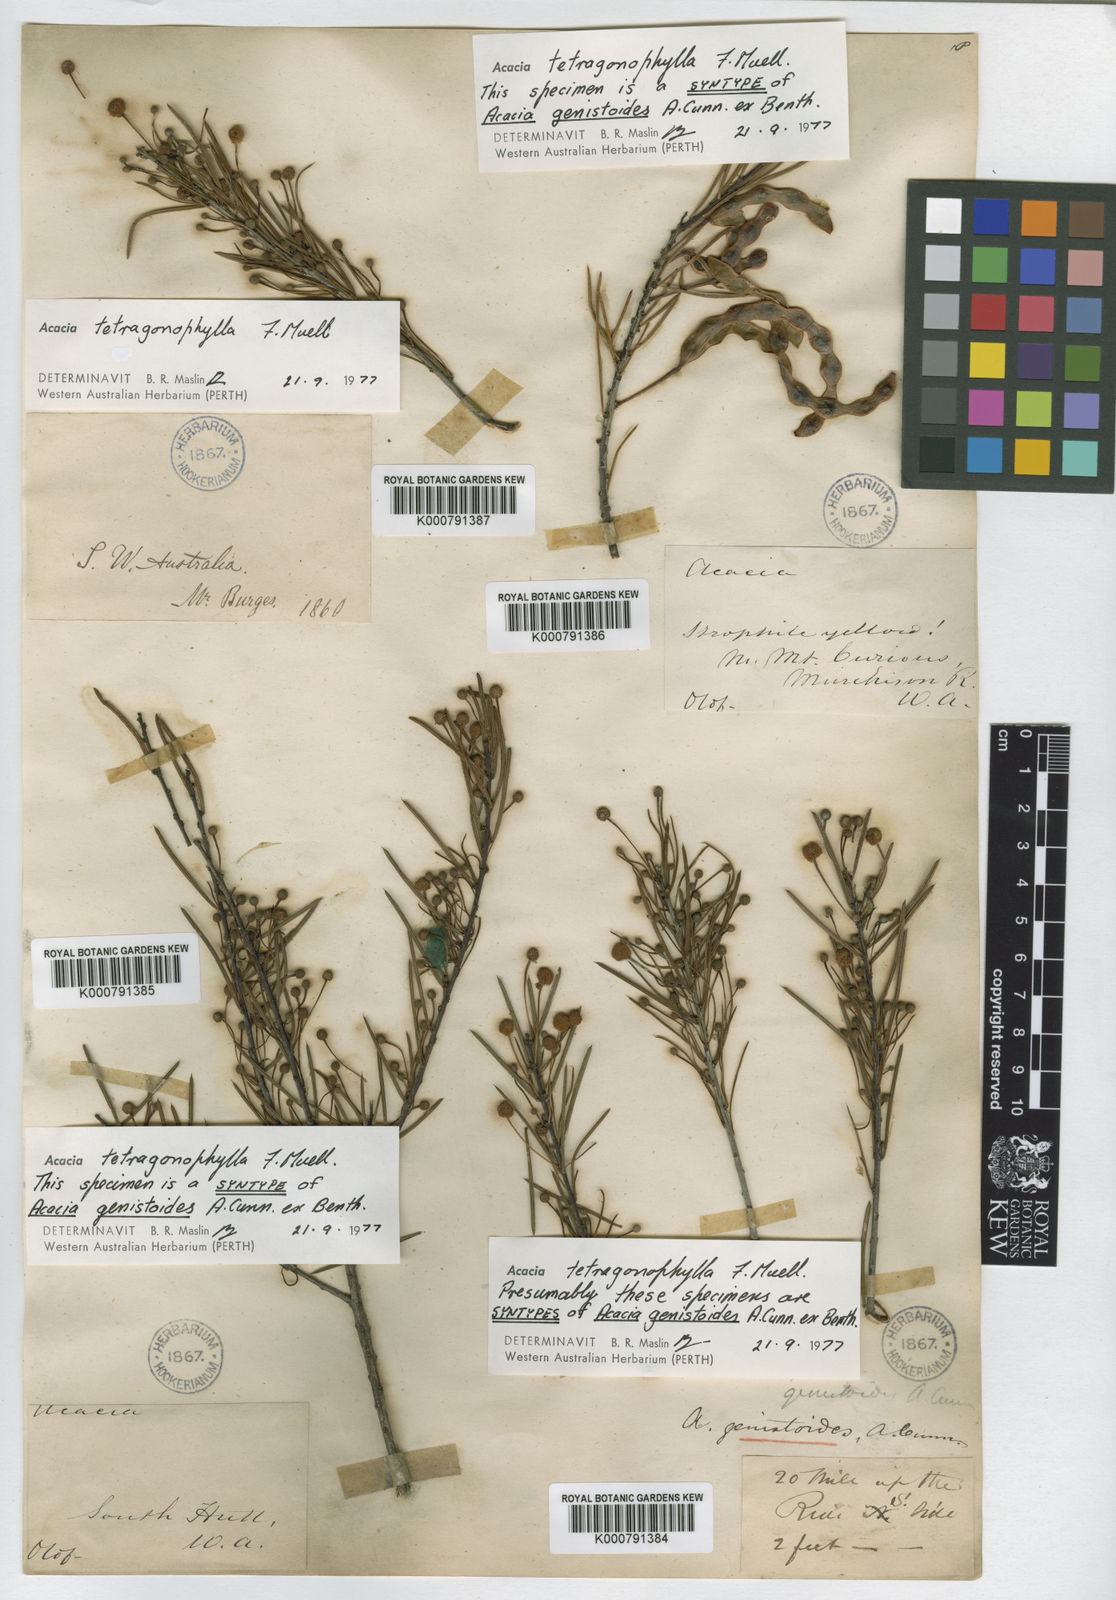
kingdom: Plantae
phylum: Tracheophyta
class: Magnoliopsida
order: Fabales
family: Fabaceae
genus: Acacia
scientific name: Acacia tetragonophylla
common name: Dead finish
